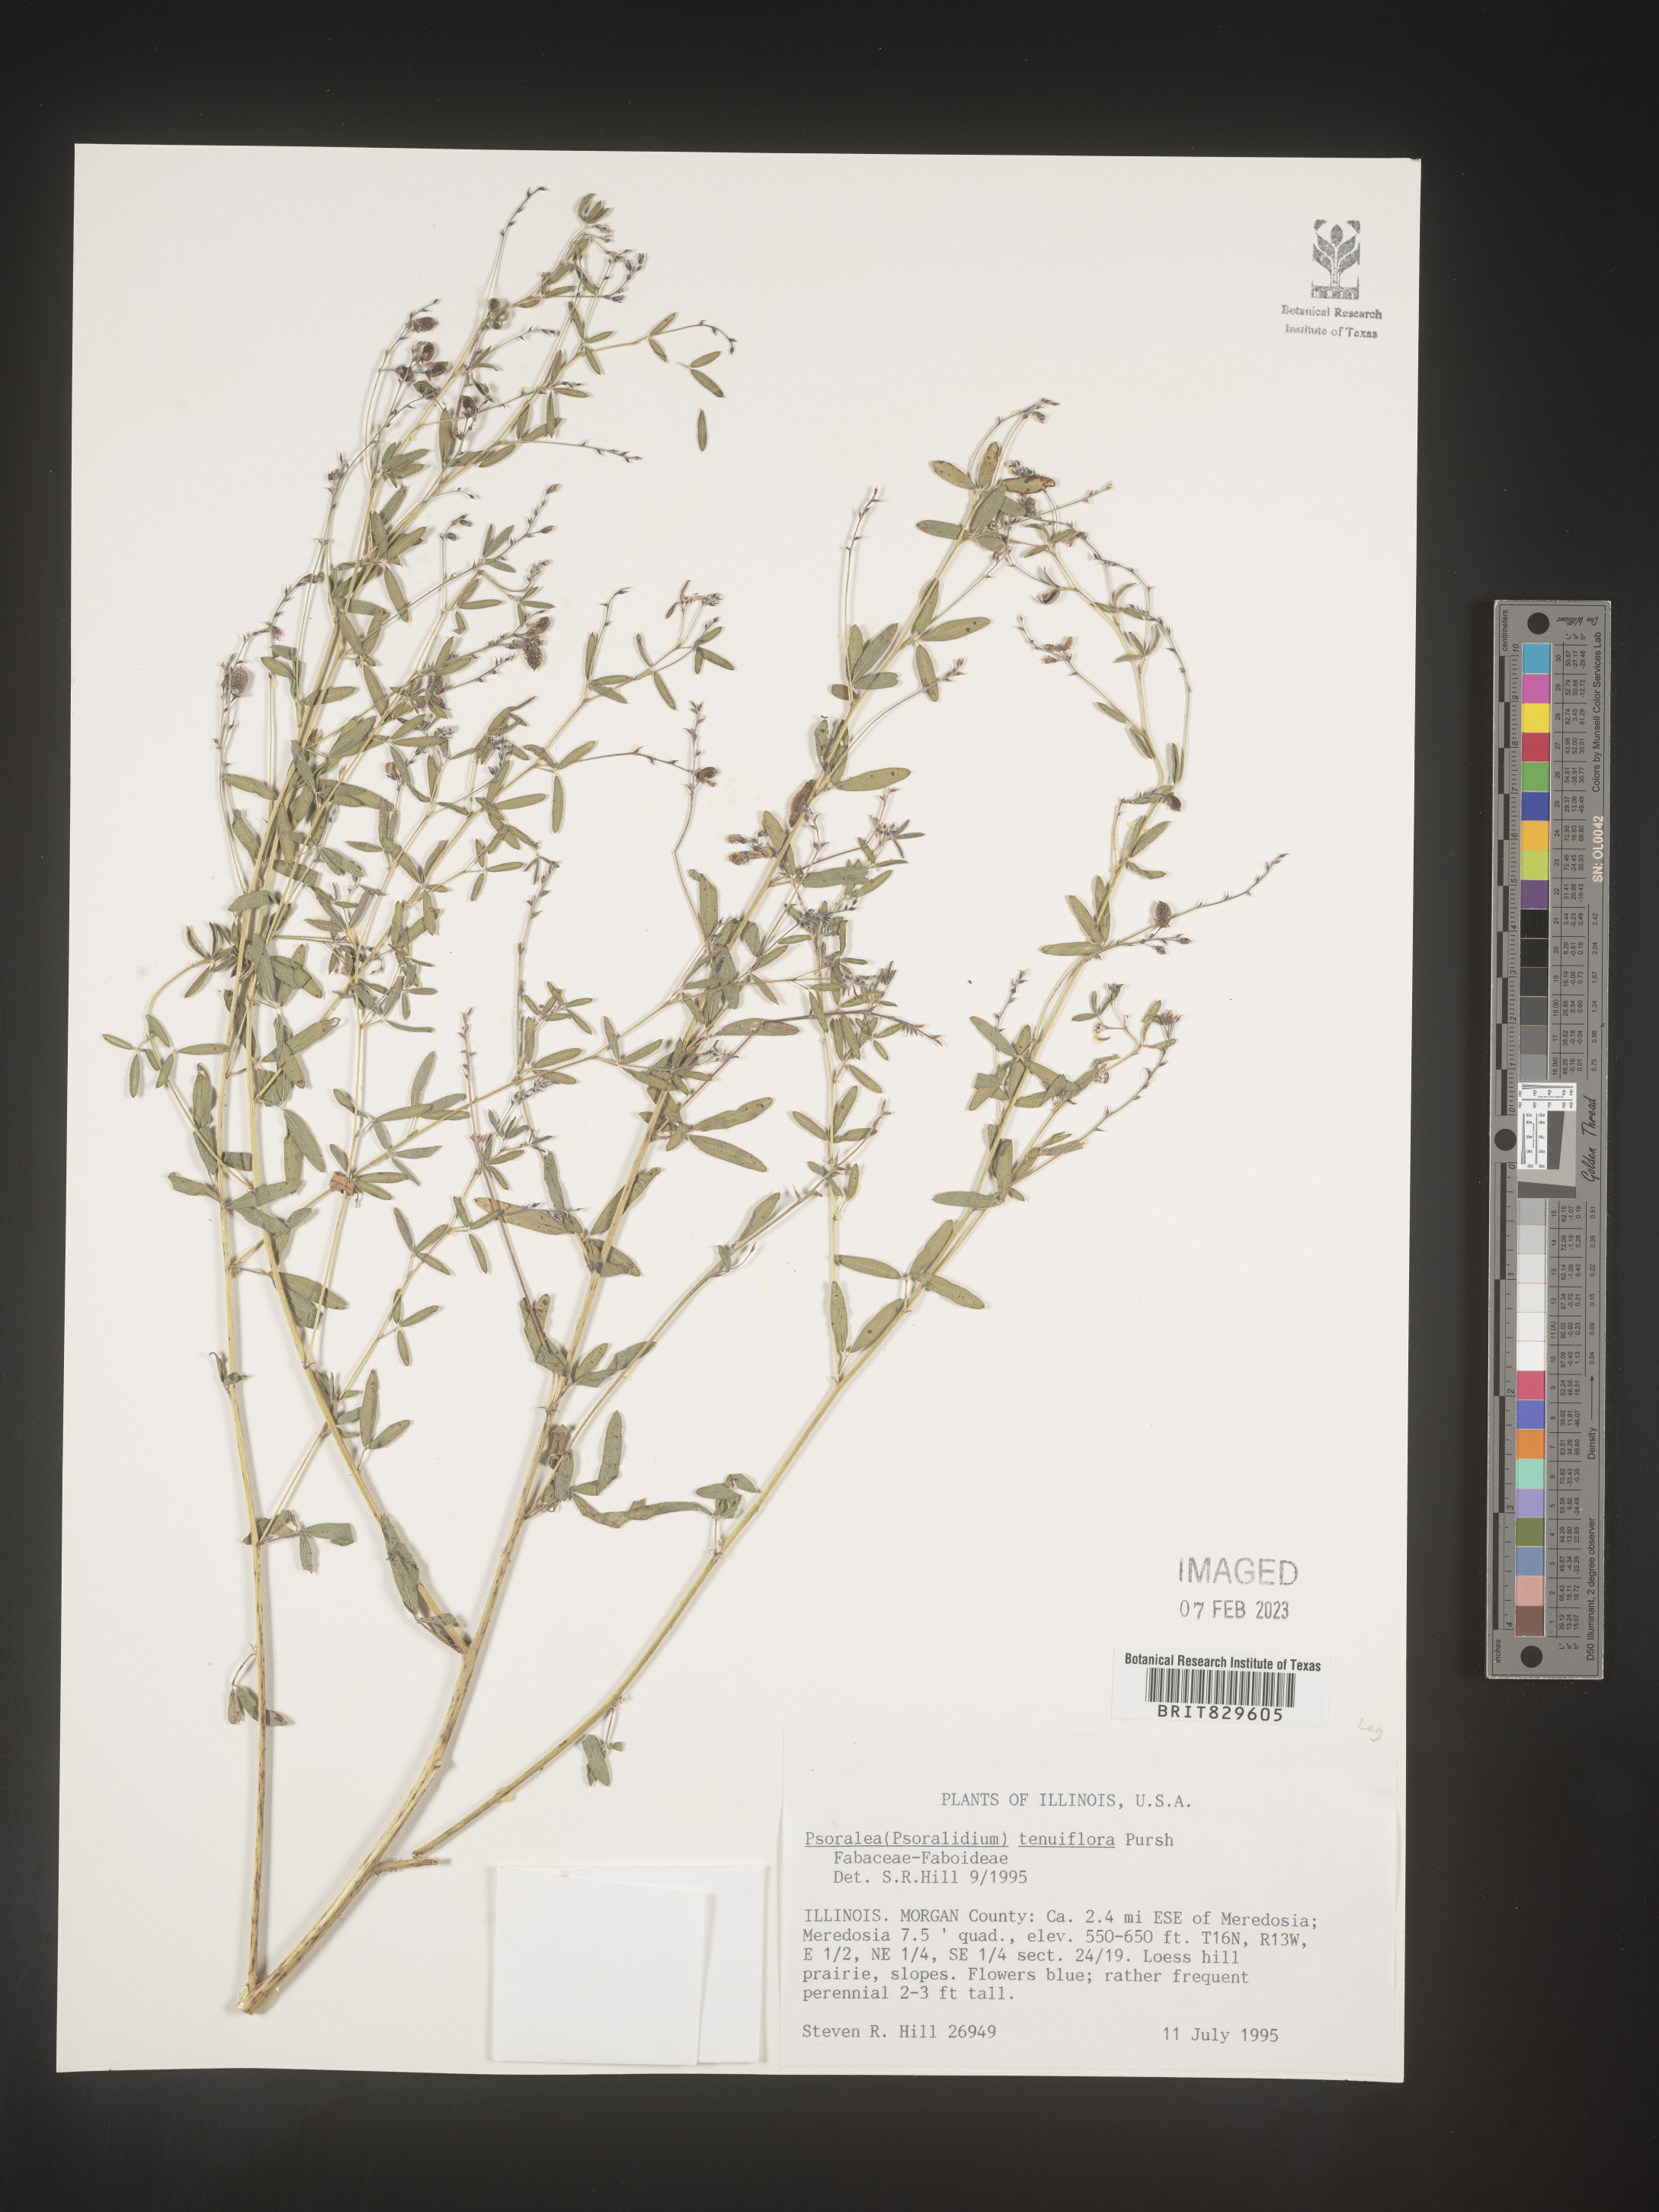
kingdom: Plantae
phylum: Tracheophyta
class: Magnoliopsida
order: Fabales
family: Fabaceae
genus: Pediomelum
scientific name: Pediomelum tenuiflorum
